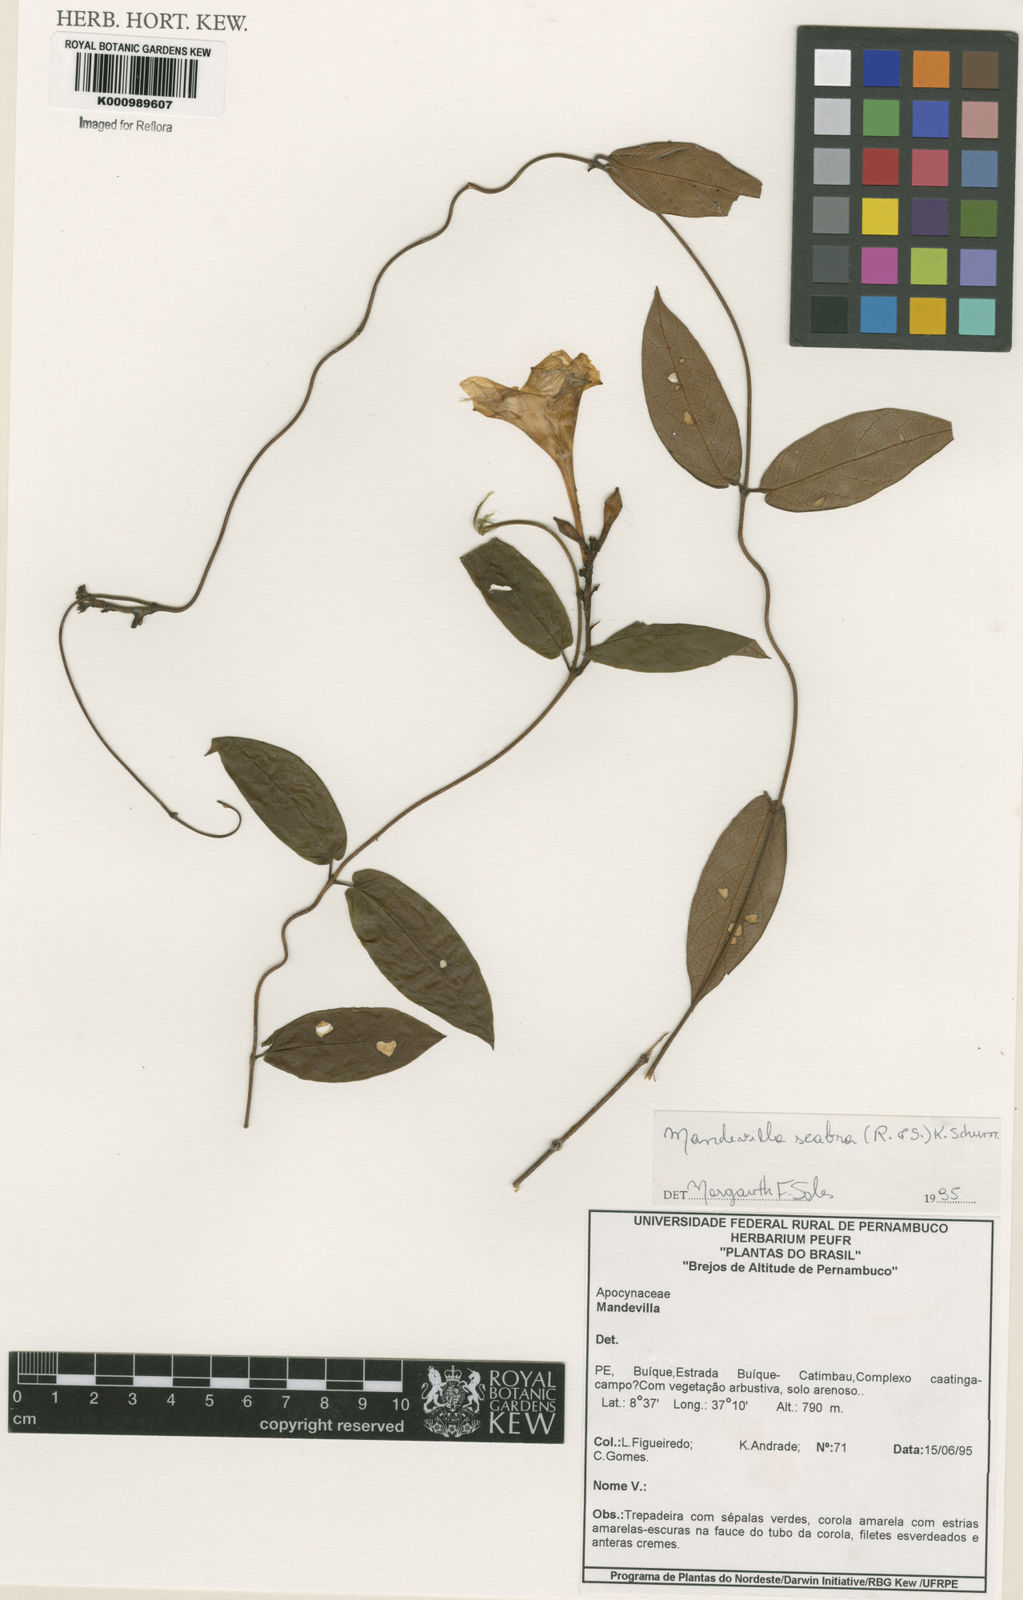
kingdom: Plantae
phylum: Tracheophyta
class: Magnoliopsida
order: Gentianales
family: Apocynaceae
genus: Mandevilla
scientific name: Mandevilla scabra
